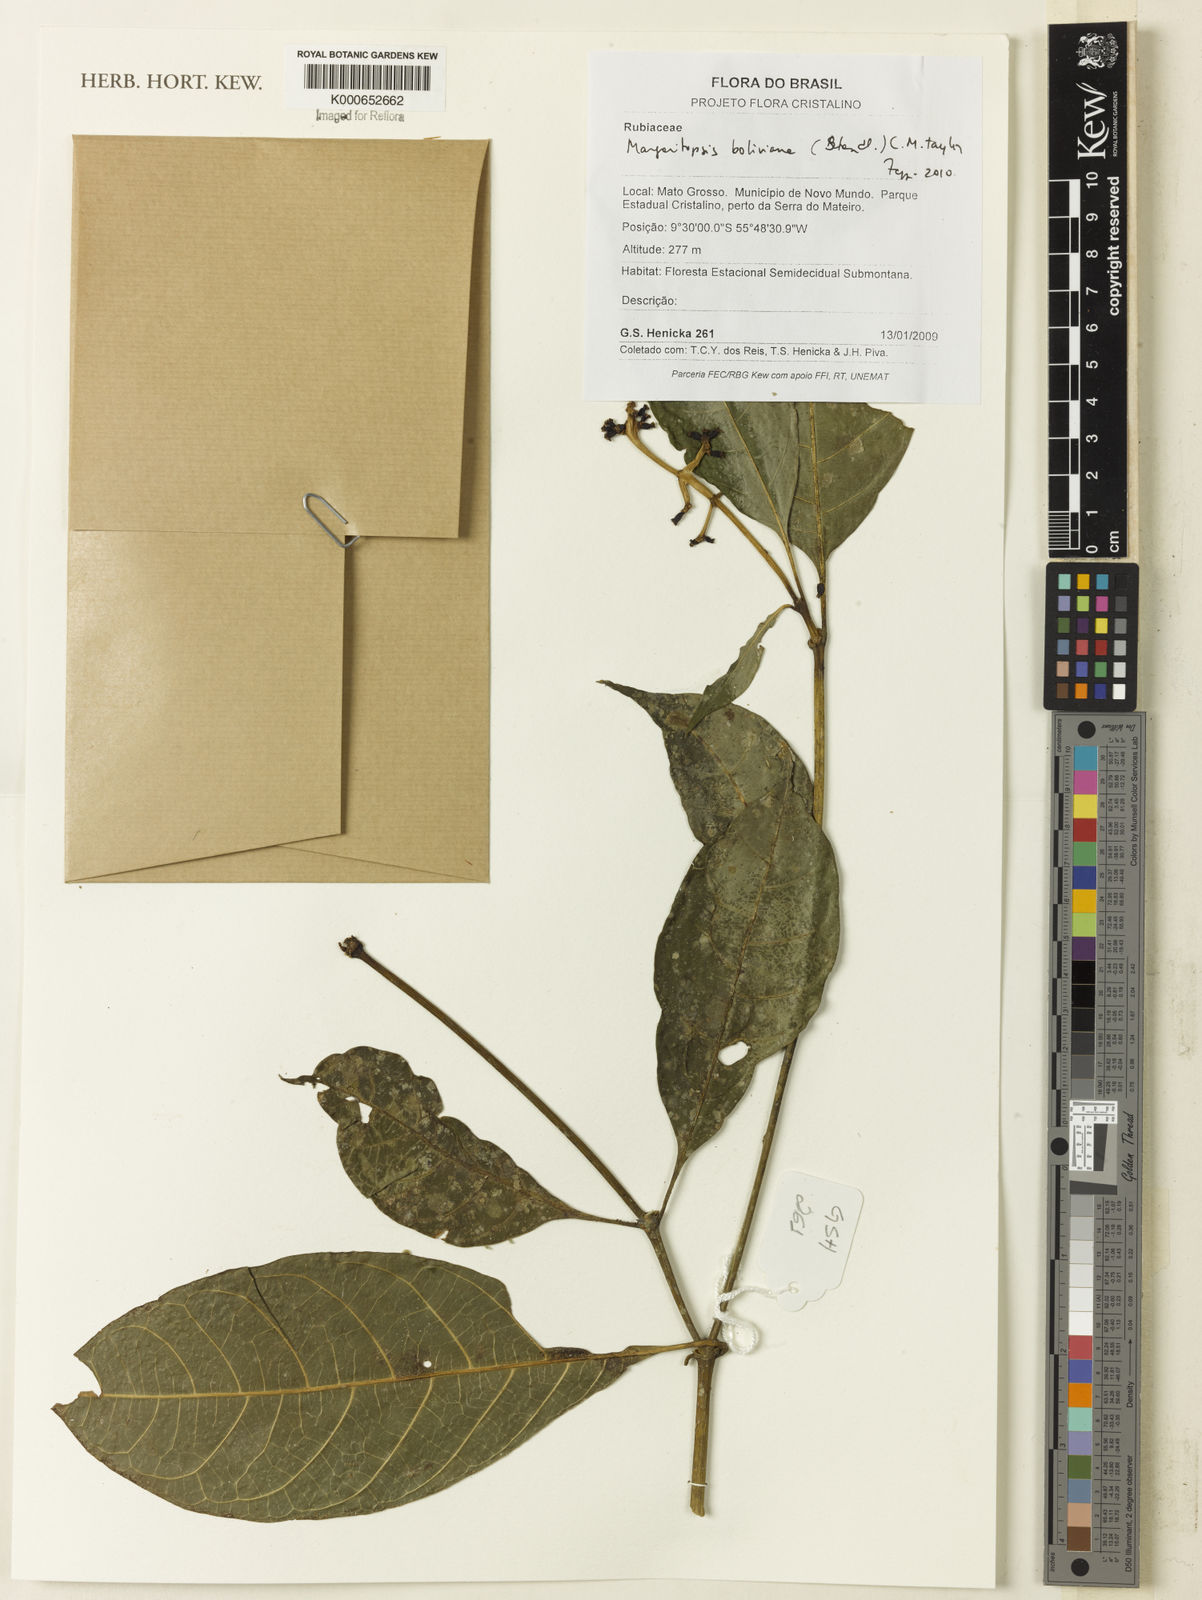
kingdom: Plantae
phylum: Tracheophyta
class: Magnoliopsida
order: Gentianales
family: Rubiaceae
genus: Eumachia
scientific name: Eumachia boliviana
